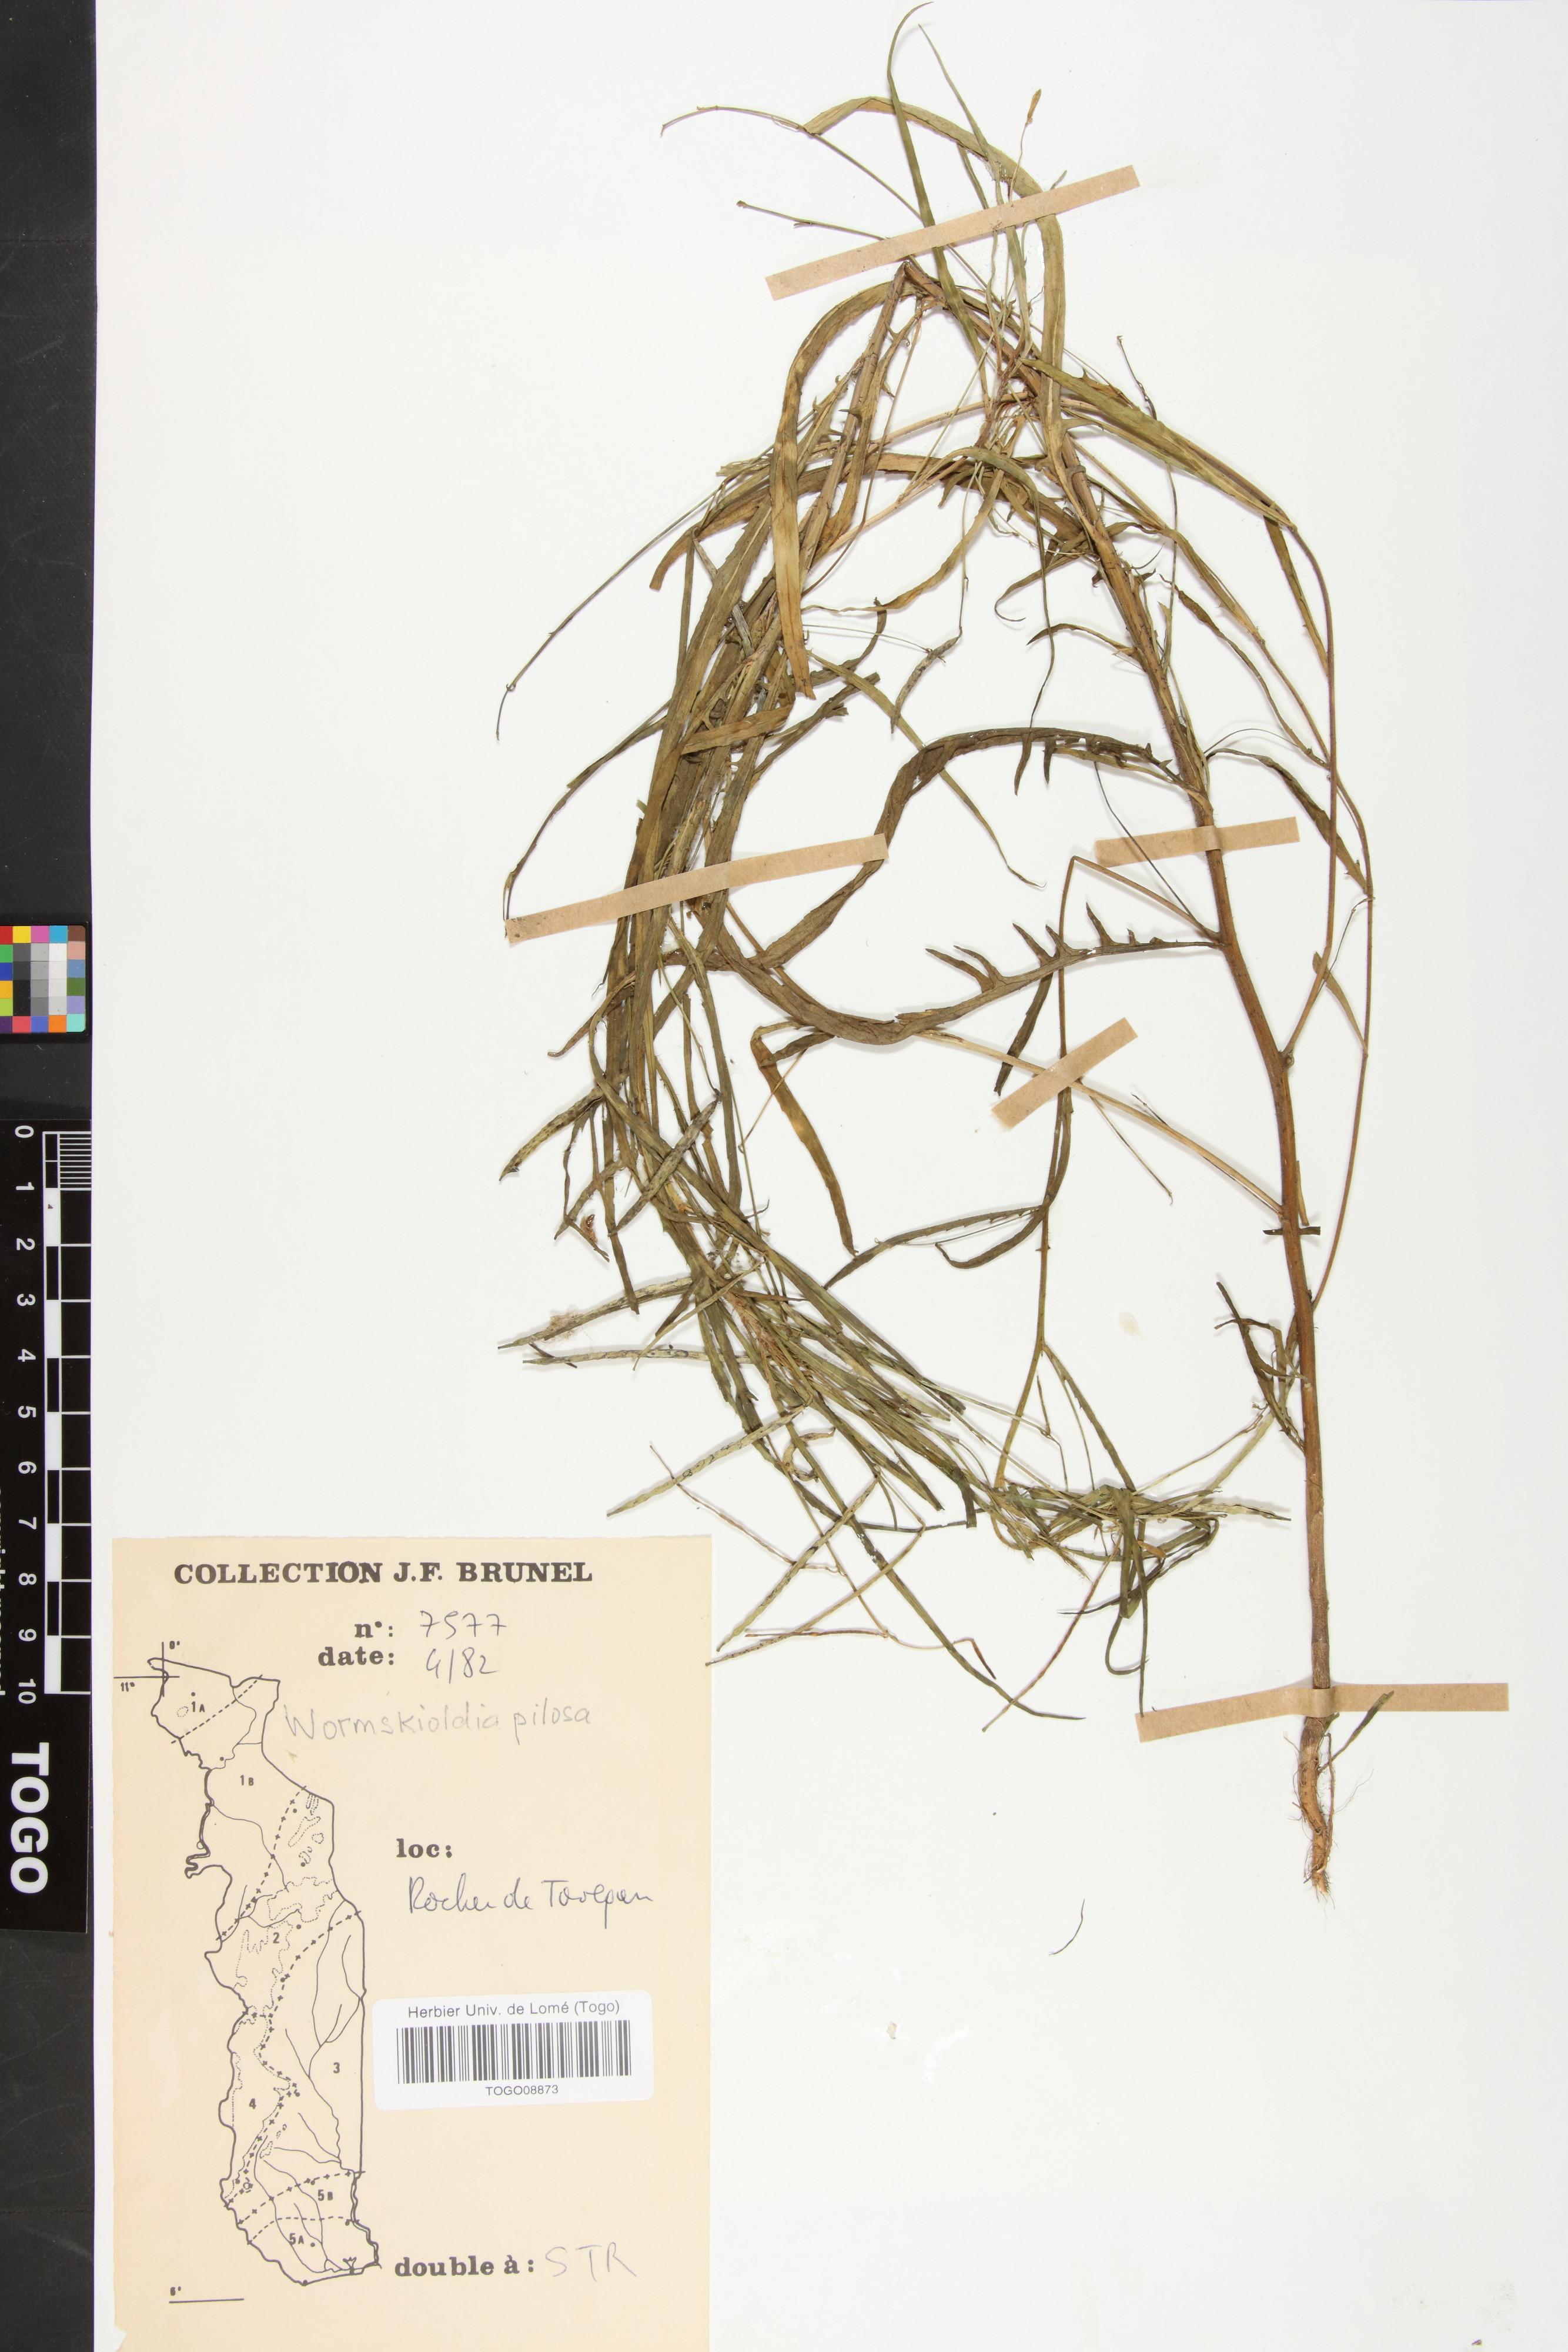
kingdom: Plantae
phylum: Tracheophyta
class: Magnoliopsida
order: Malpighiales
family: Turneraceae
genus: Tricliceras
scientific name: Tricliceras pilosum
